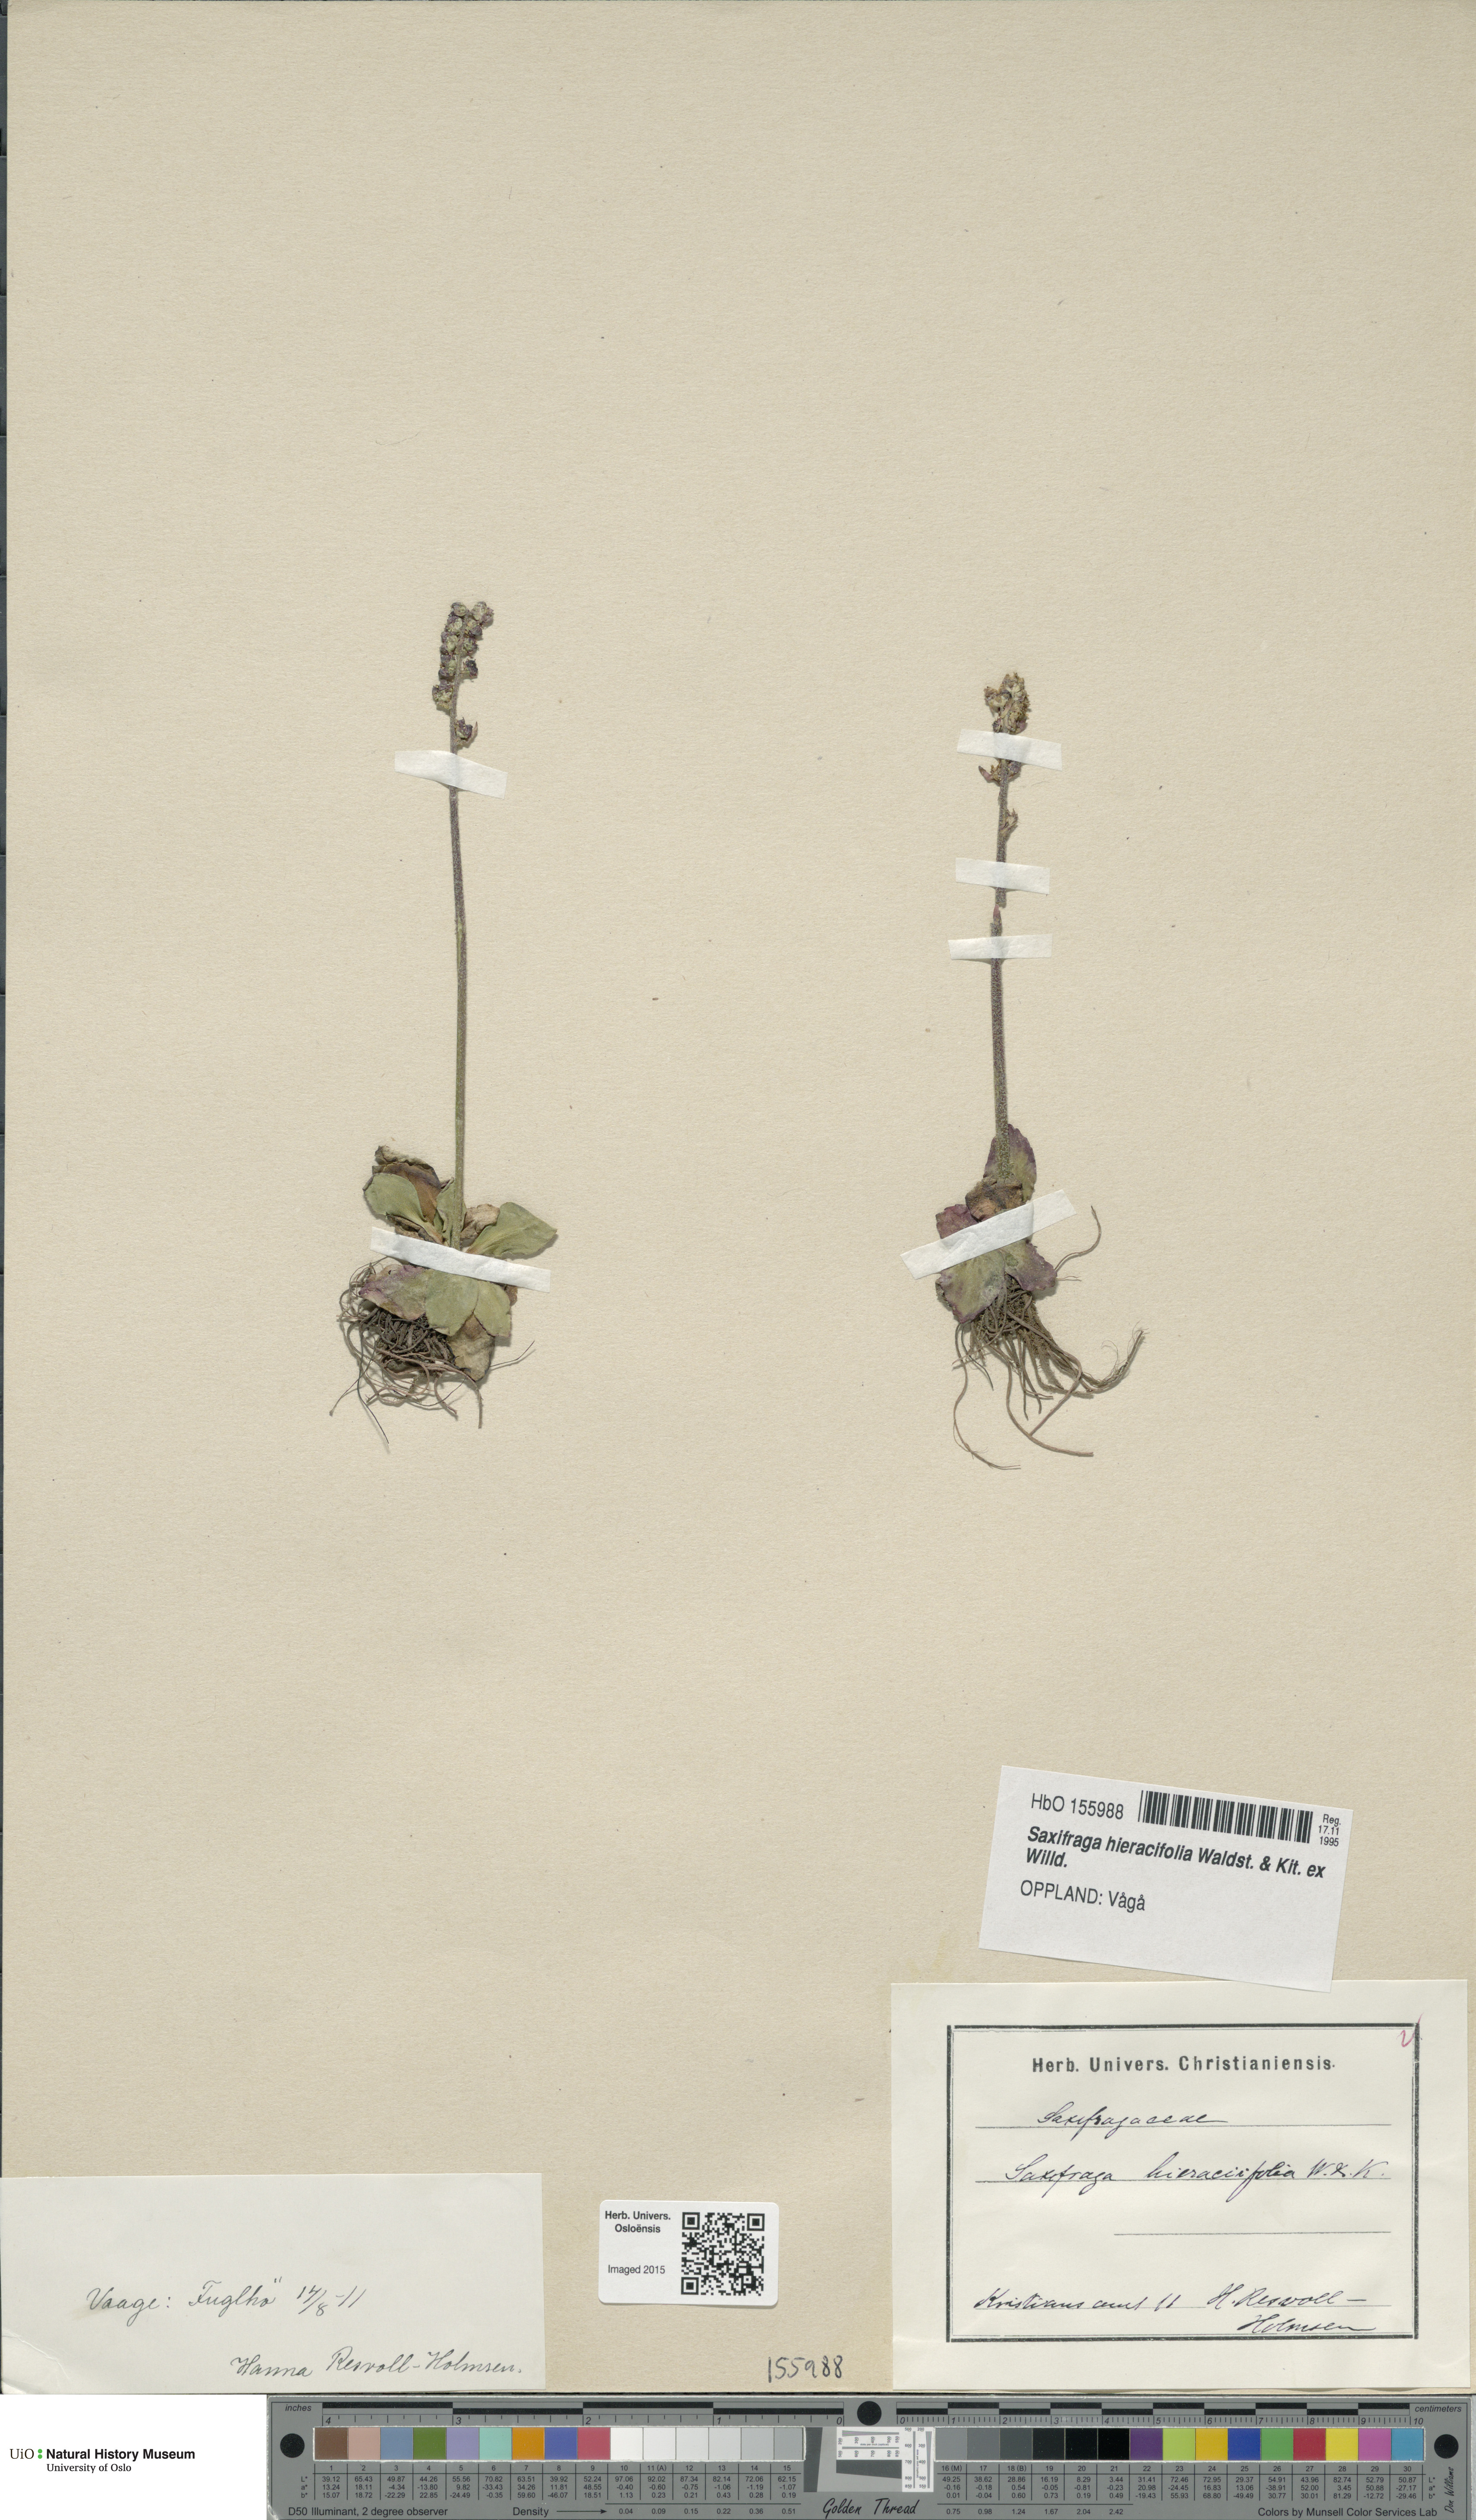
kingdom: Plantae
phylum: Tracheophyta
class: Magnoliopsida
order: Saxifragales
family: Saxifragaceae
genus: Micranthes
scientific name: Micranthes hieraciifolia
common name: Hawkweed-leaved saxifrage
